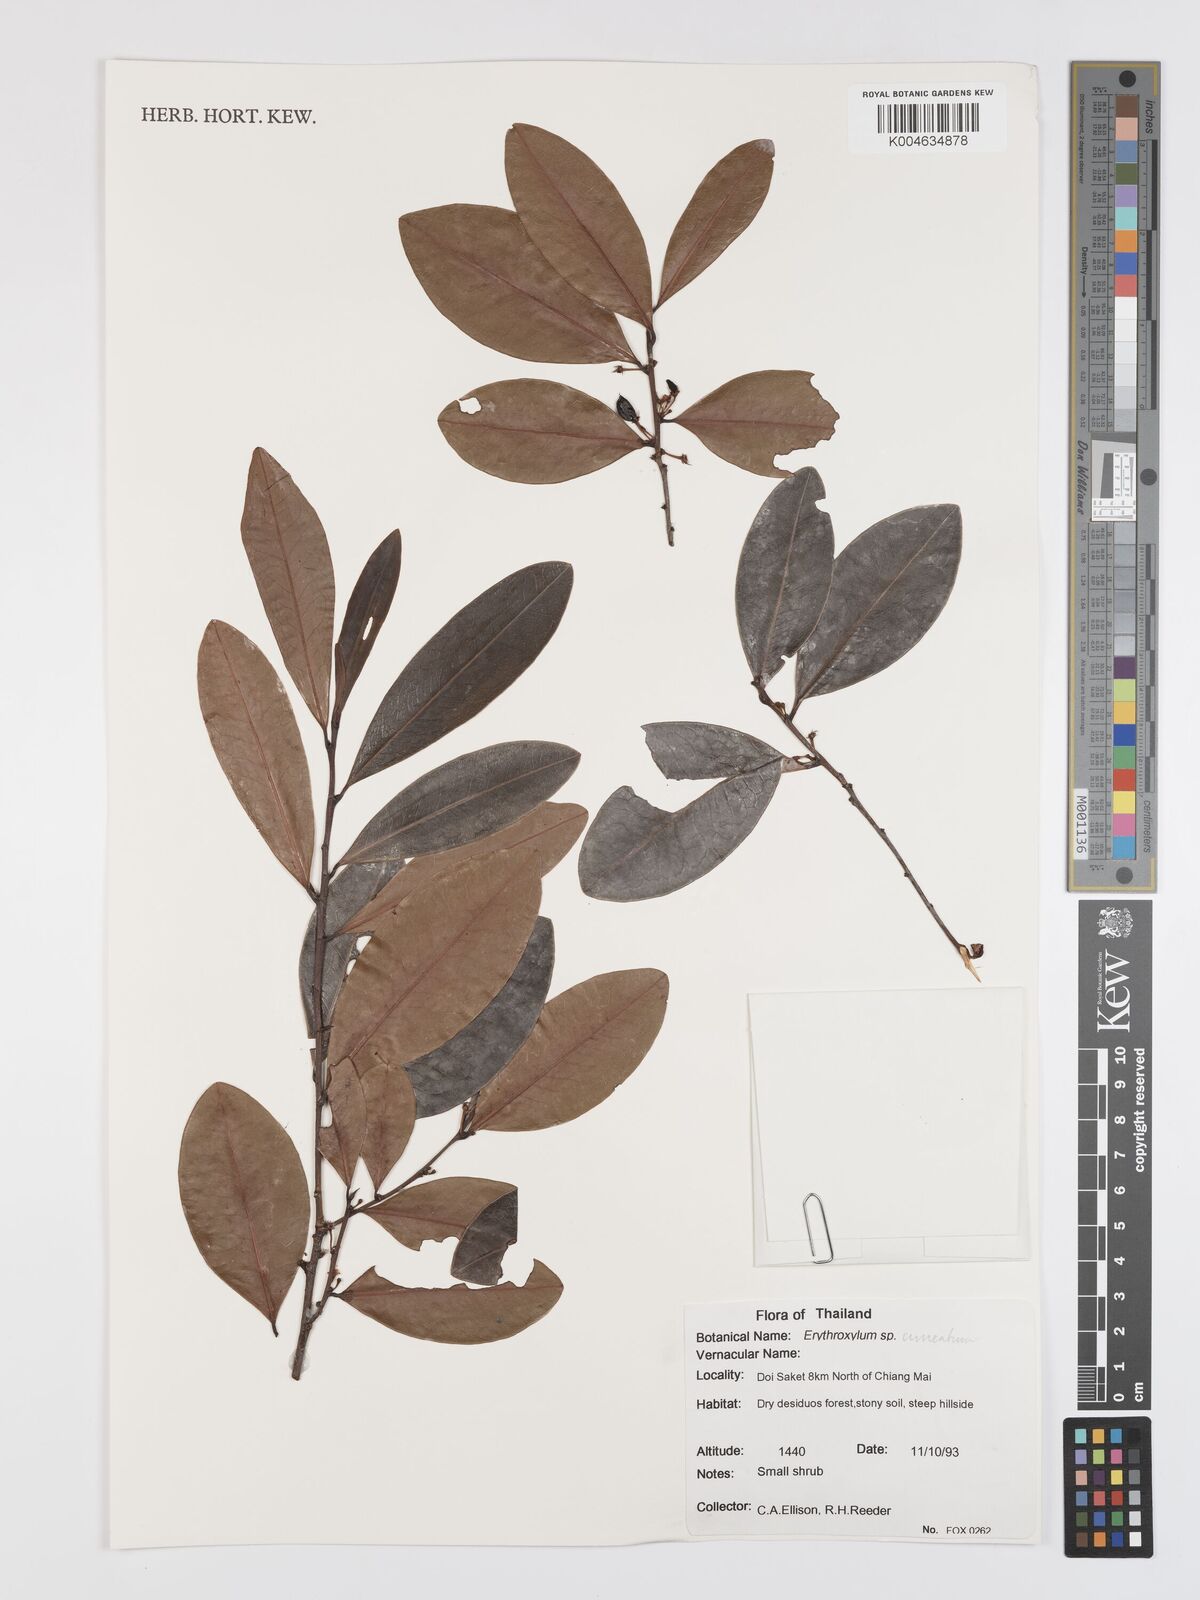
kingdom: Plantae
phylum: Tracheophyta
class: Magnoliopsida
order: Malpighiales
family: Erythroxylaceae
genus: Erythroxylum
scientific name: Erythroxylum
